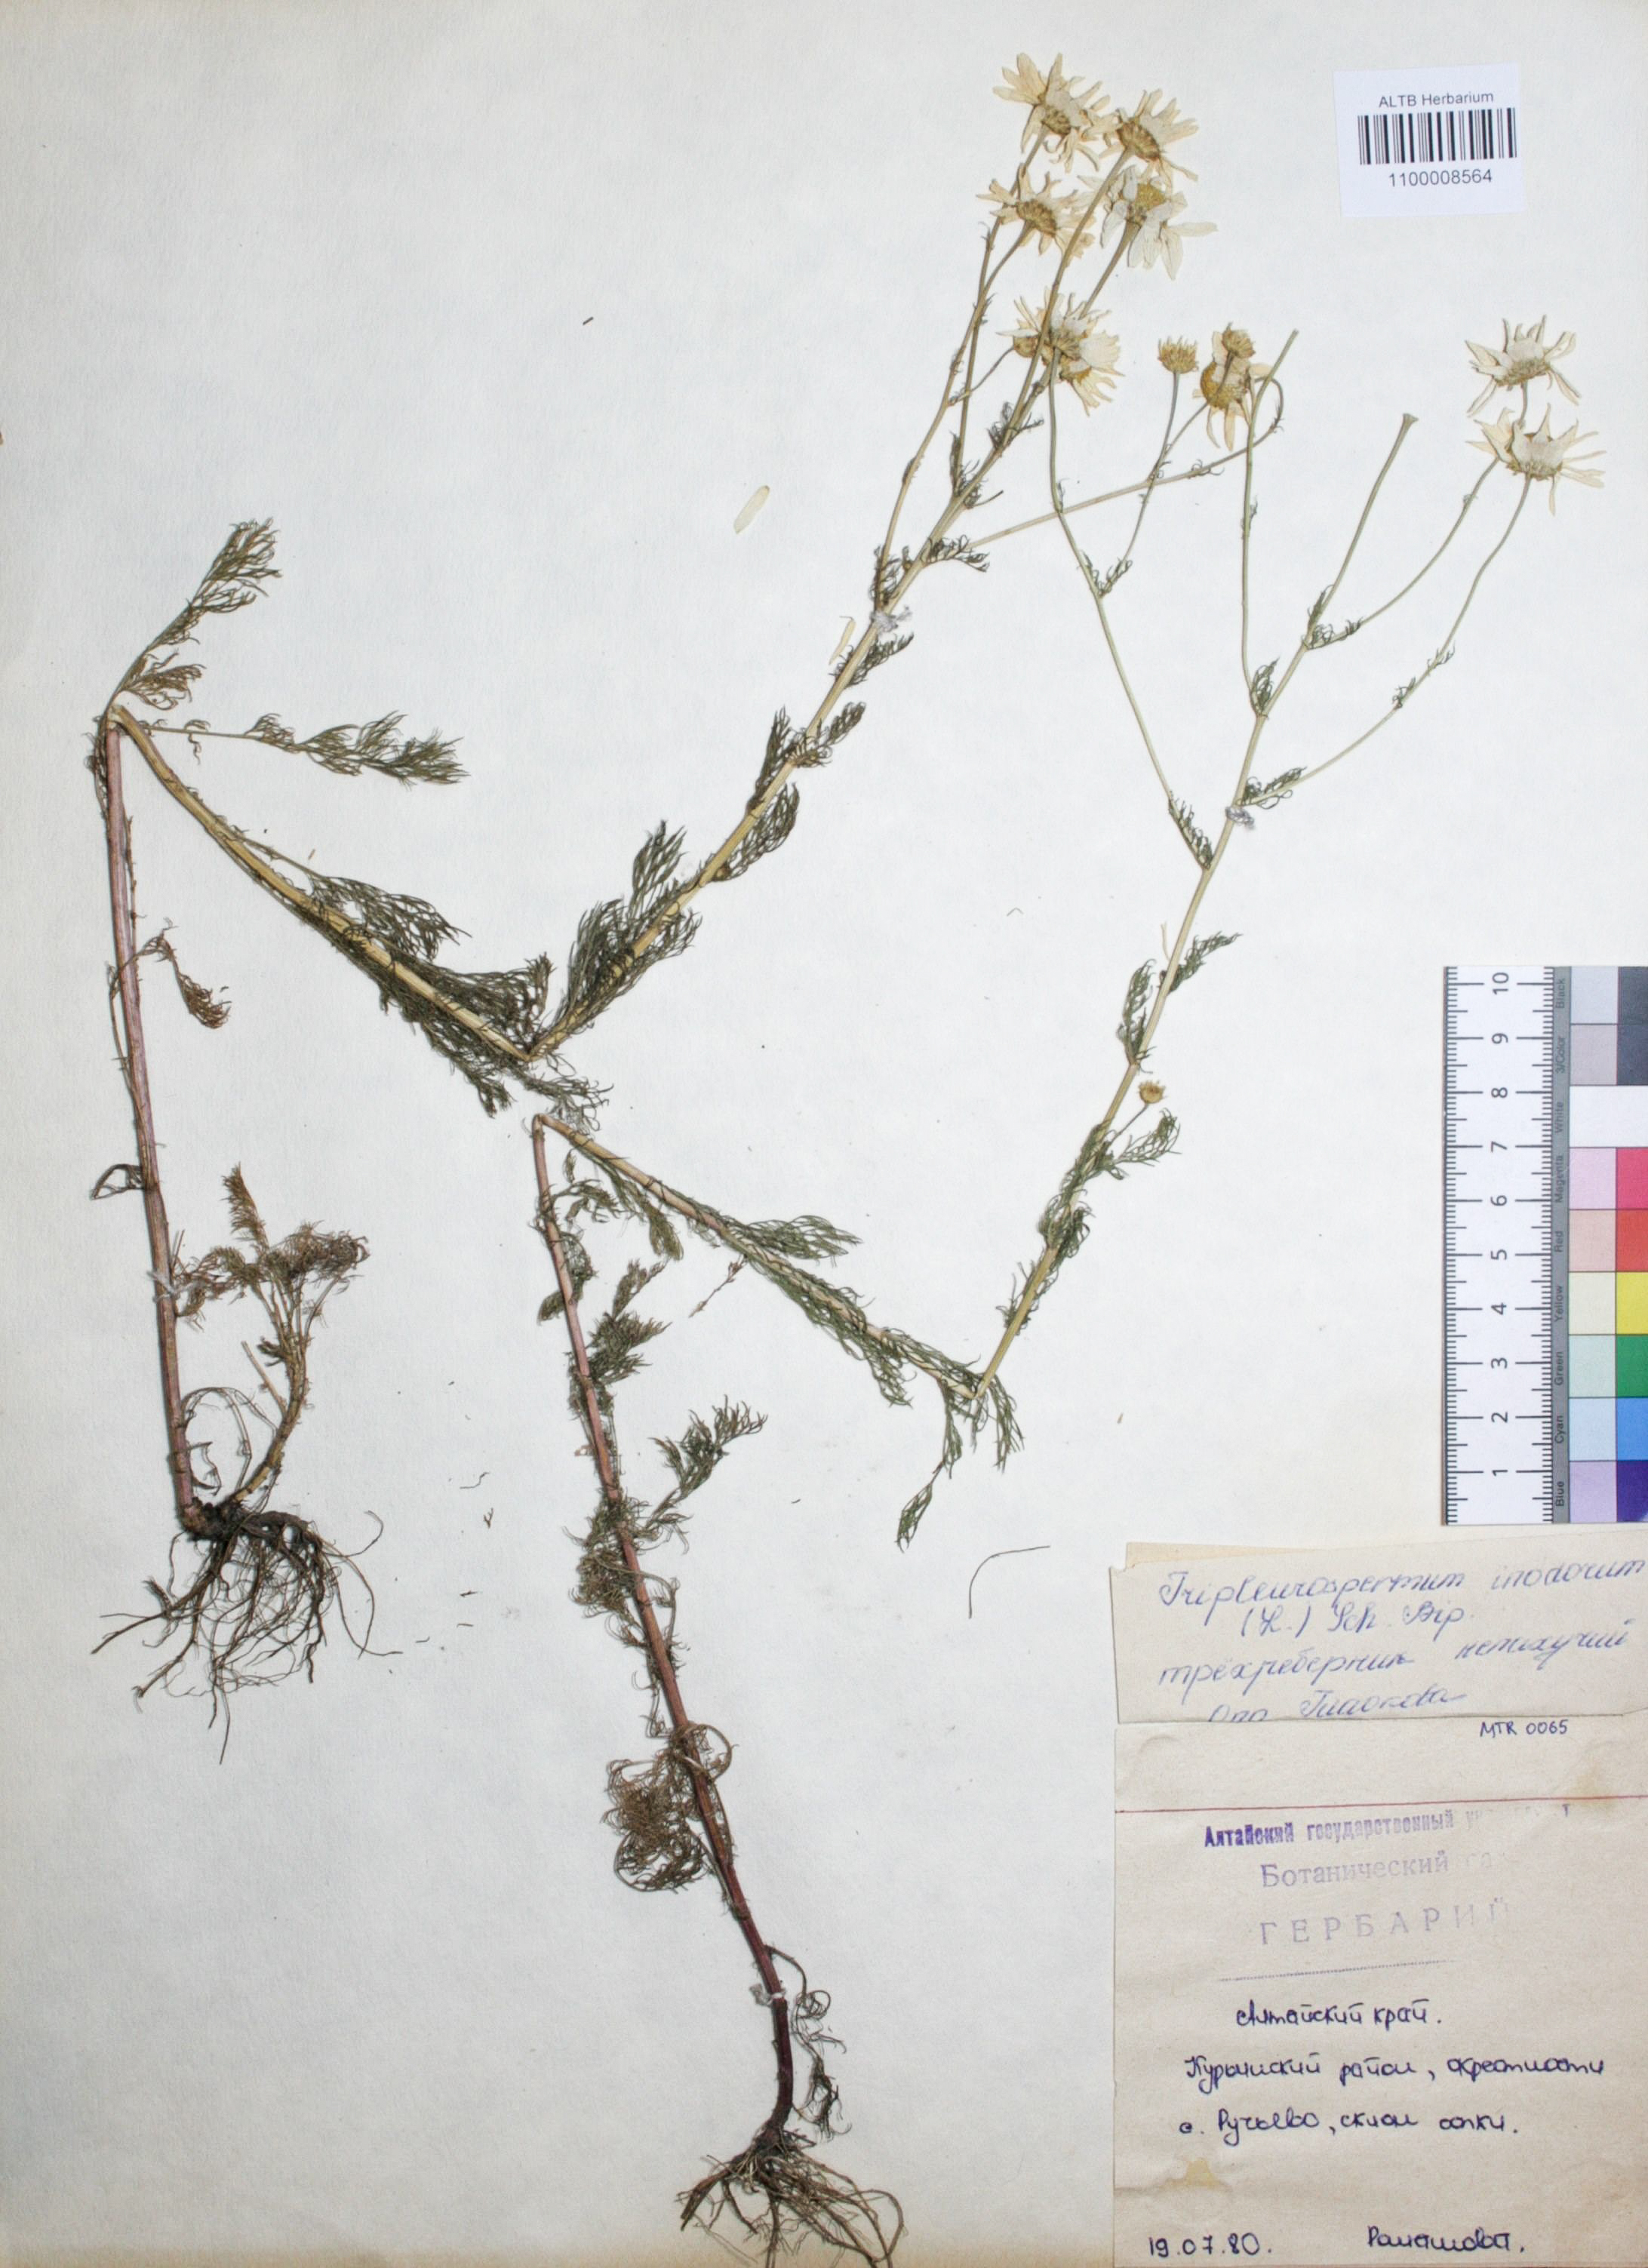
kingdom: Plantae
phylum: Tracheophyta
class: Magnoliopsida
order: Asterales
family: Asteraceae
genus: Tripleurospermum
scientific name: Tripleurospermum inodorum
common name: Scentless mayweed
